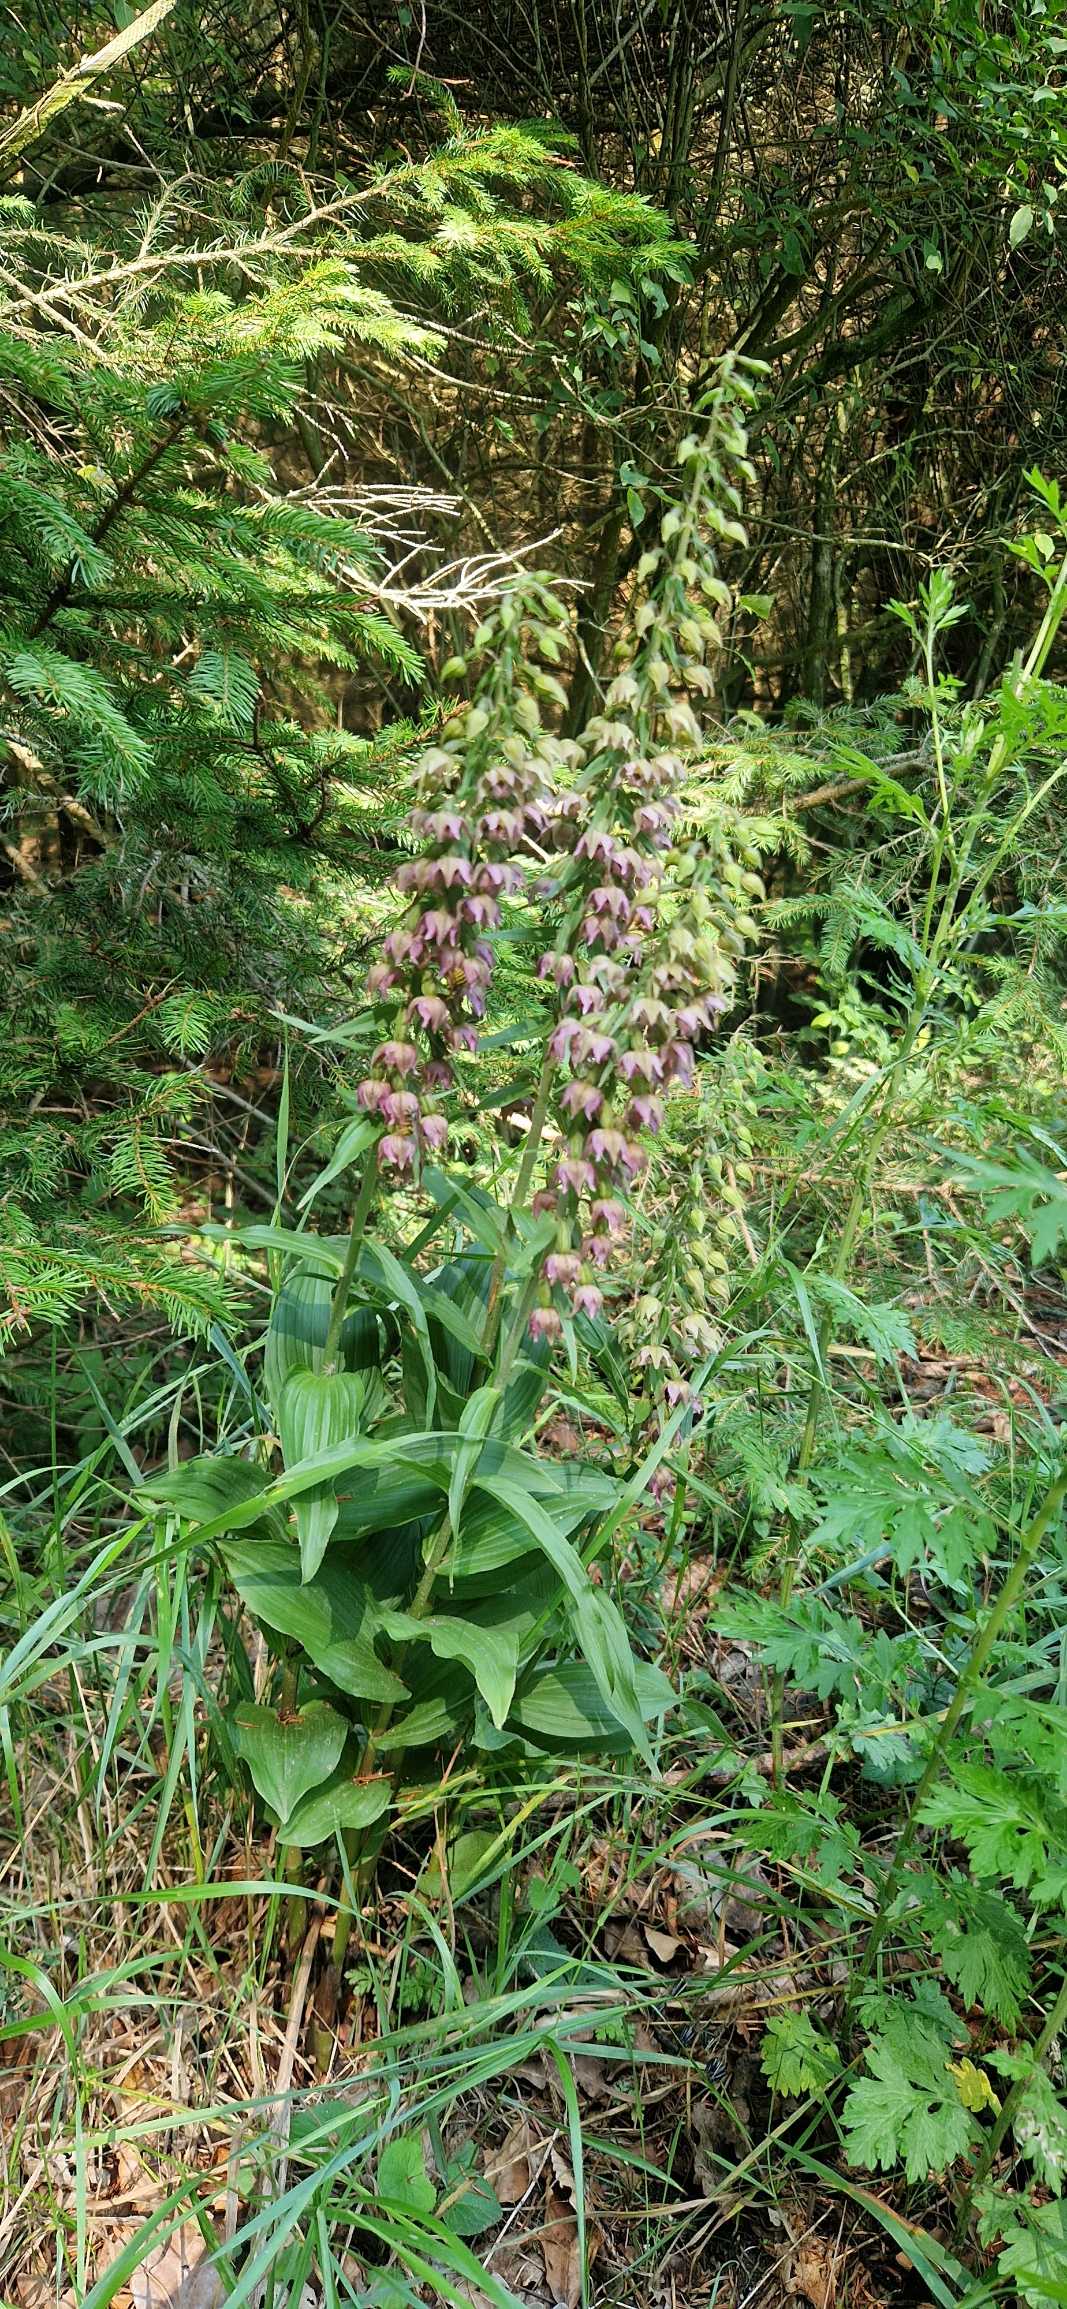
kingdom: Plantae
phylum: Tracheophyta
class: Liliopsida
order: Asparagales
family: Orchidaceae
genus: Epipactis
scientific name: Epipactis helleborine
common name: Skov-hullæbe
